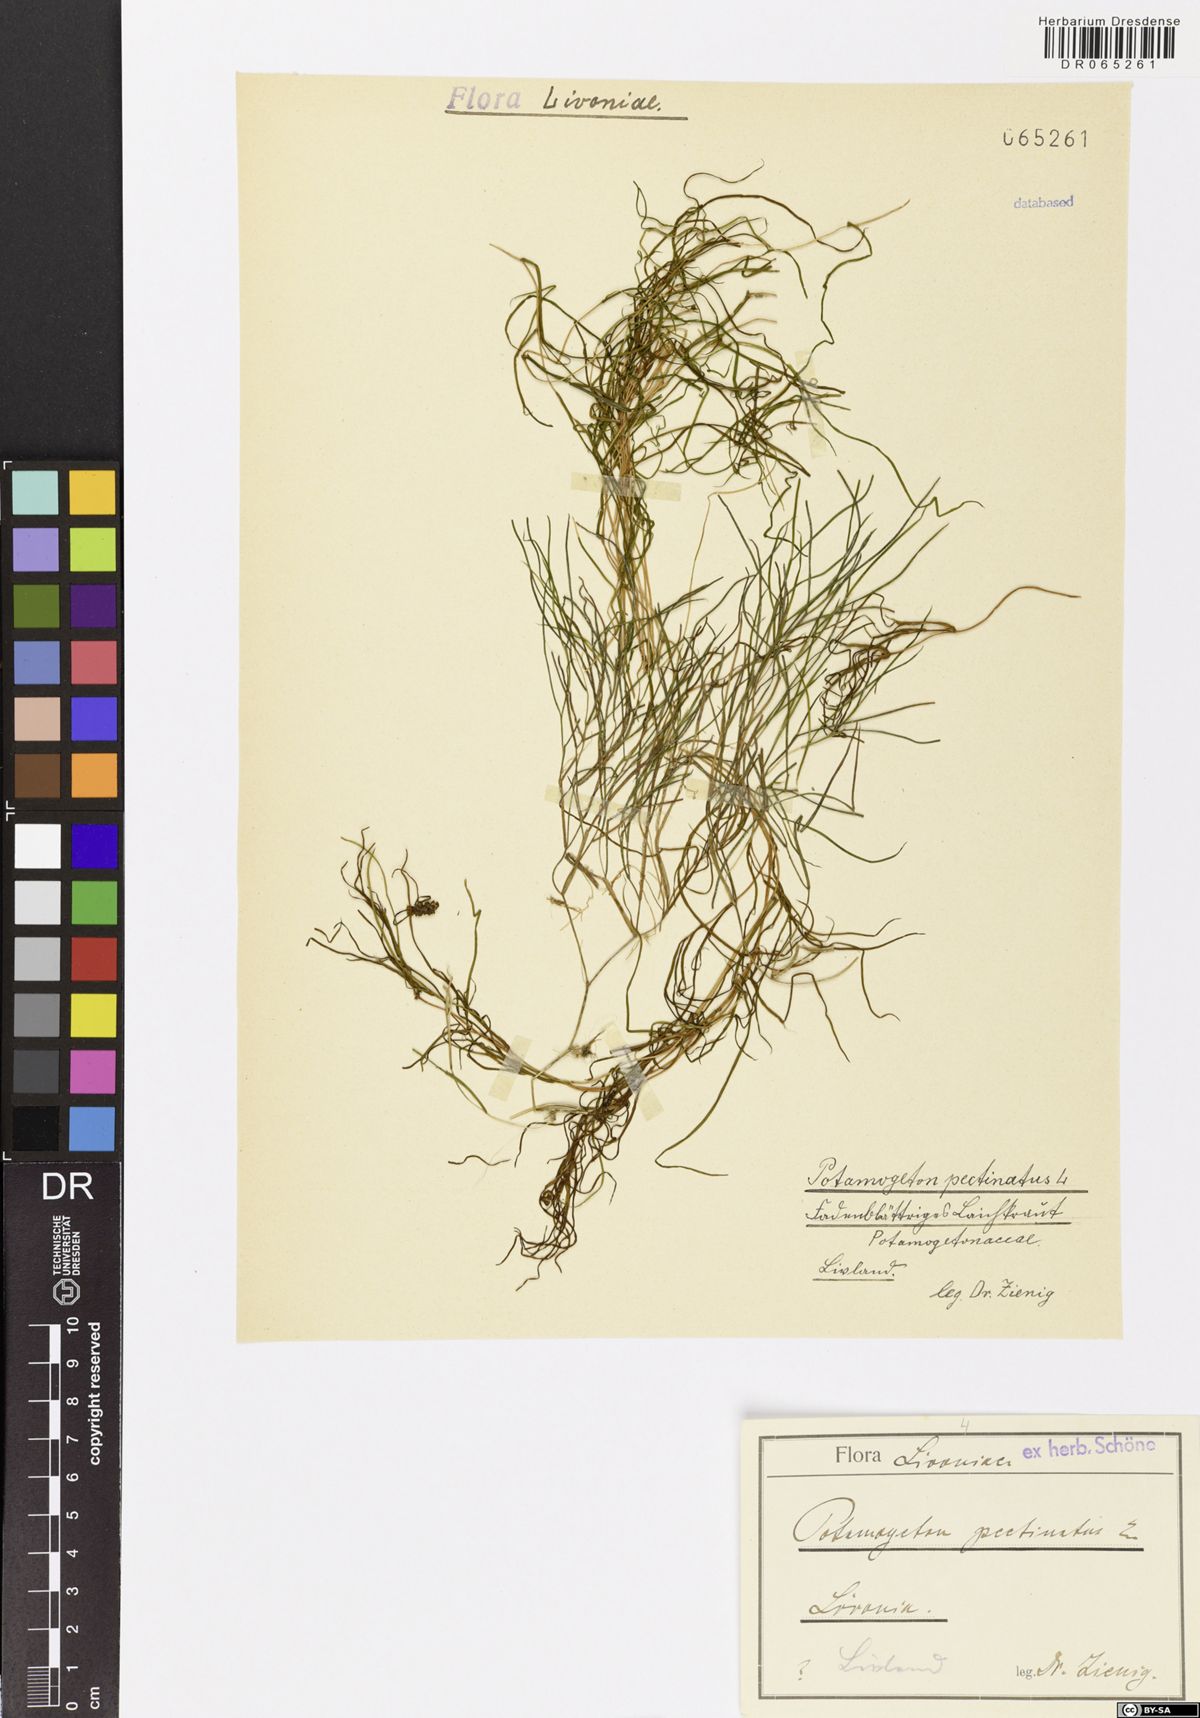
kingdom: Plantae
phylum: Tracheophyta
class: Liliopsida
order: Alismatales
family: Potamogetonaceae
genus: Stuckenia
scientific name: Stuckenia pectinata
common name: Sago pondweed
